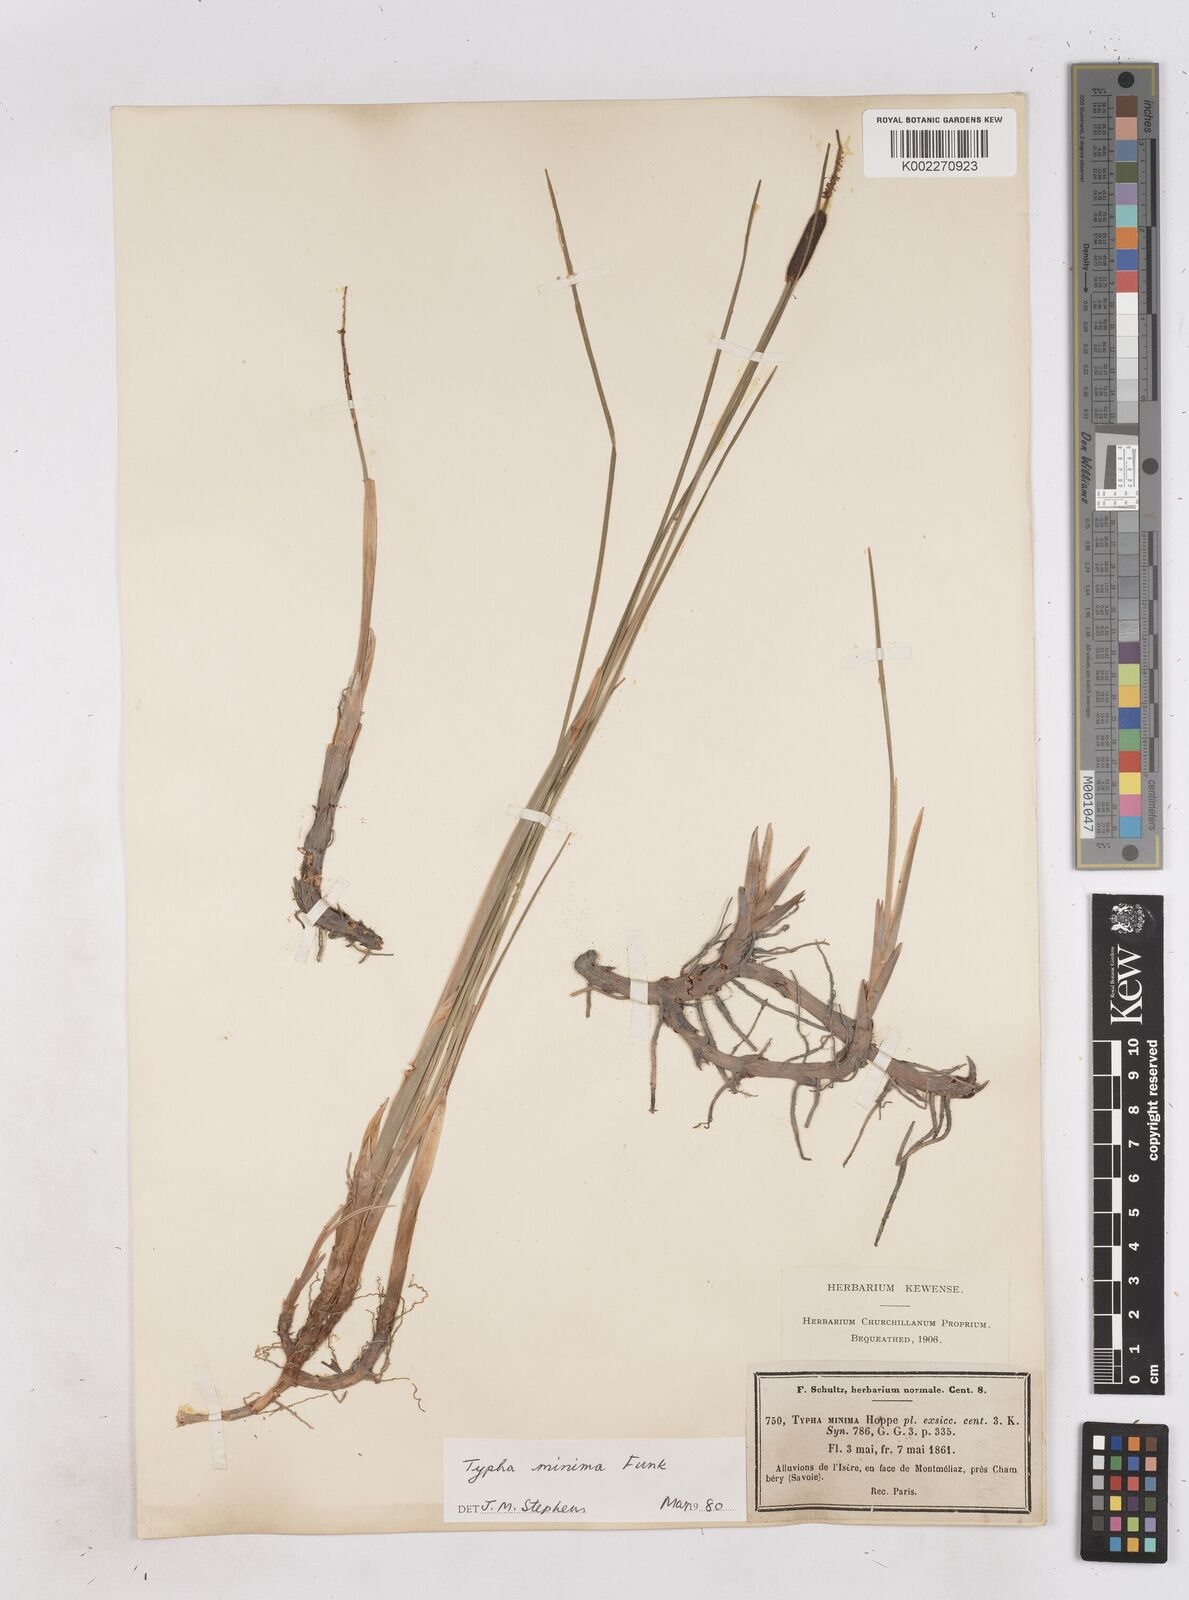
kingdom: Plantae
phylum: Tracheophyta
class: Liliopsida
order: Poales
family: Typhaceae
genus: Typha
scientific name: Typha
